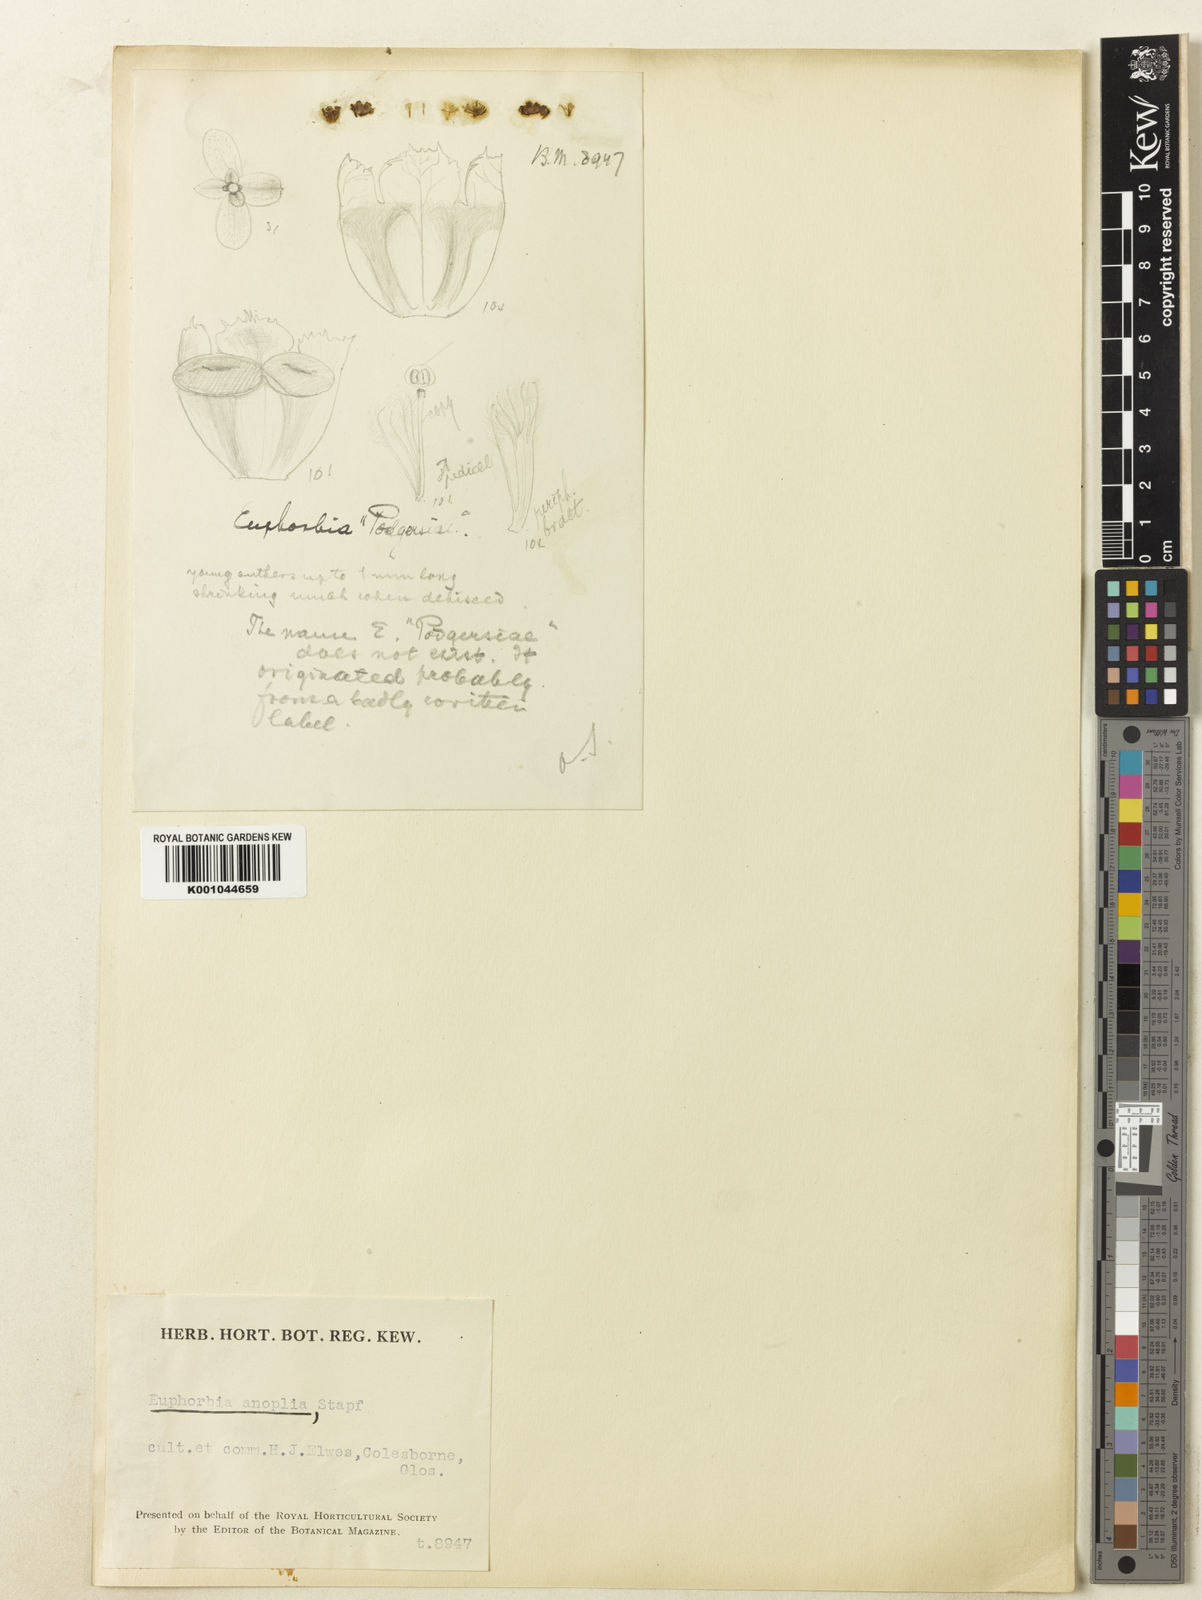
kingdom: Plantae
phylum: Tracheophyta
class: Magnoliopsida
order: Malpighiales
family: Euphorbiaceae
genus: Euphorbia
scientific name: Euphorbia polygona
